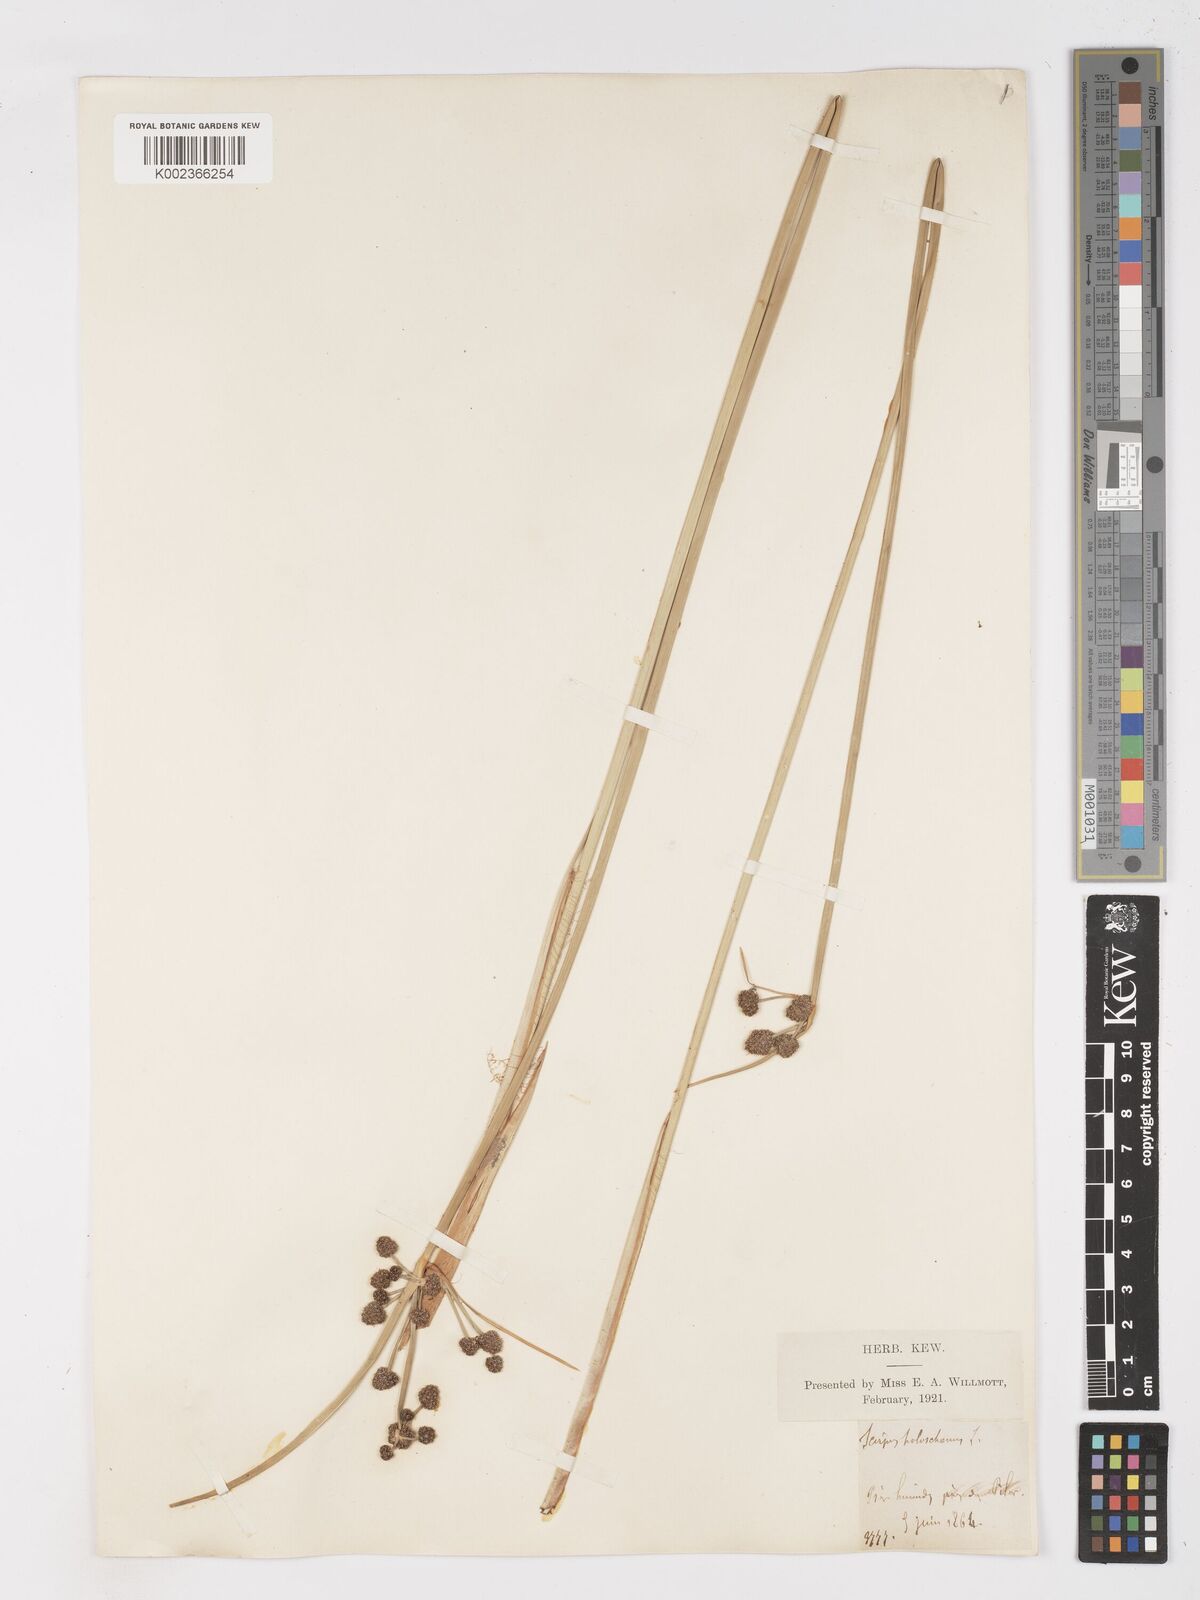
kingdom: Plantae
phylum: Tracheophyta
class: Liliopsida
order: Poales
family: Cyperaceae
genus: Scirpoides
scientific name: Scirpoides holoschoenus
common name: Round-headed club-rush
